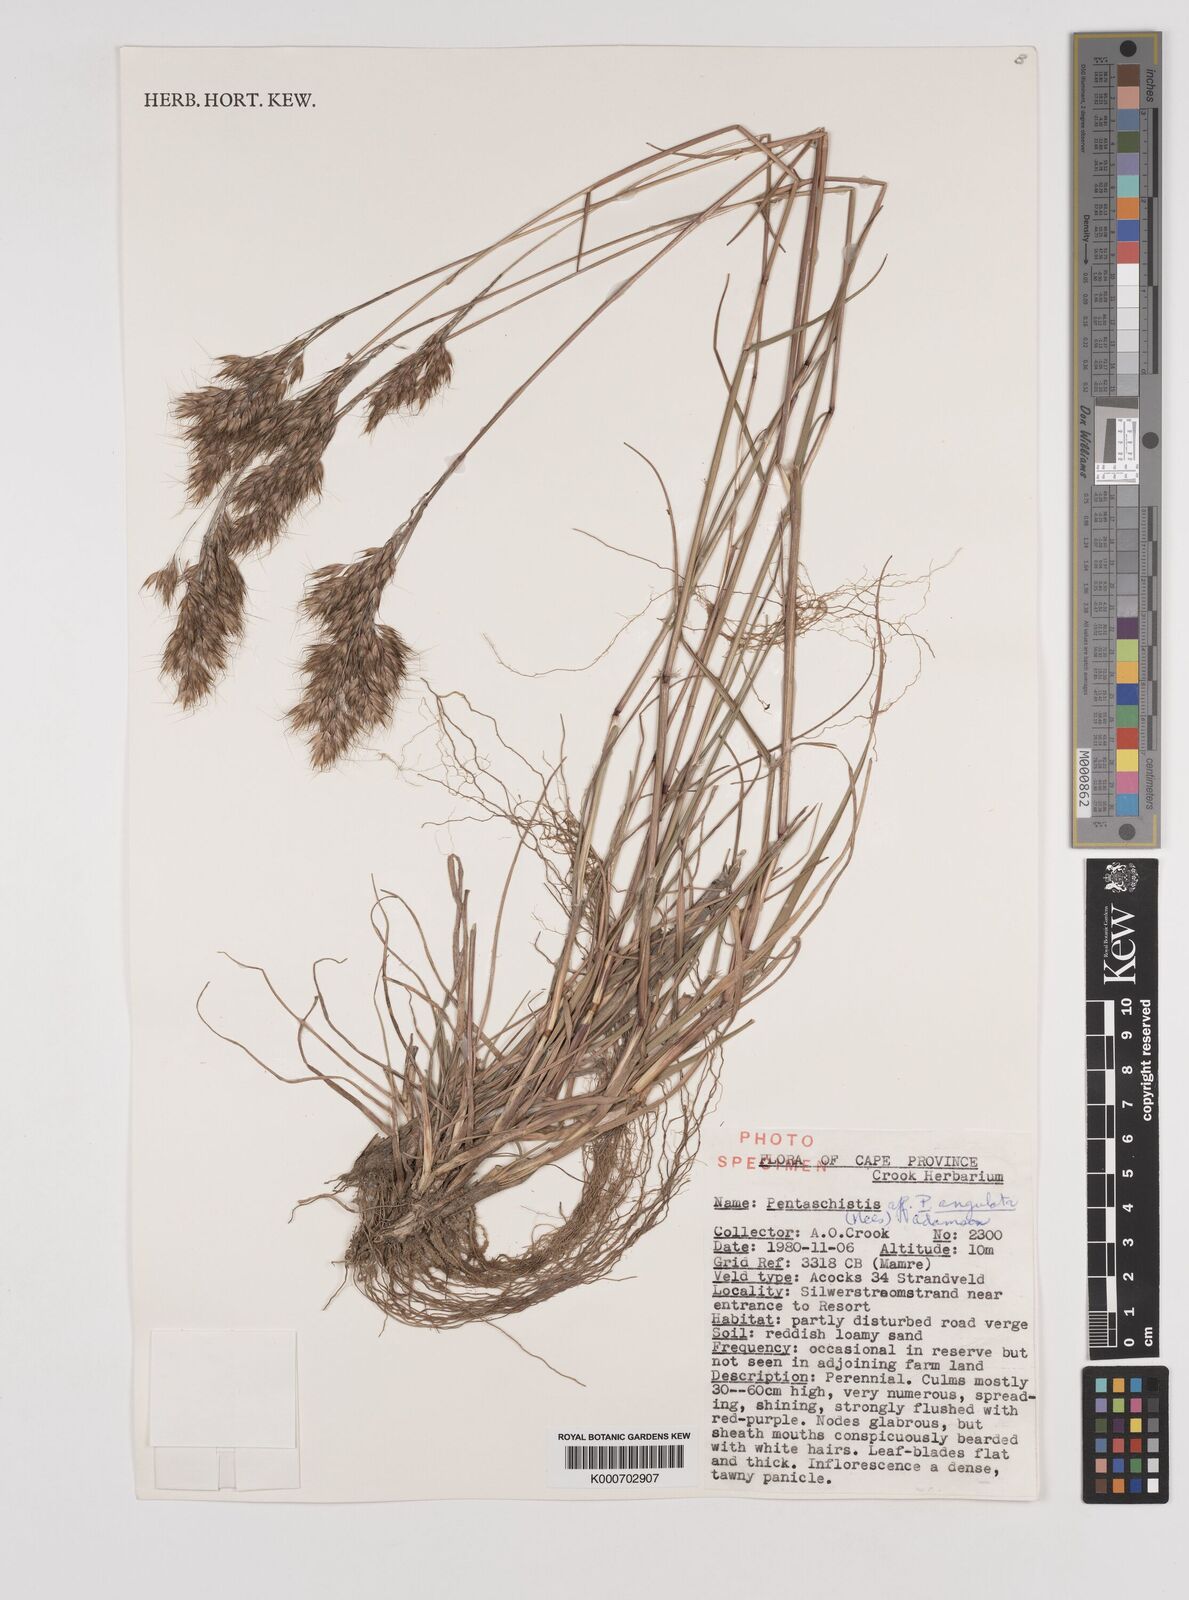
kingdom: Plantae
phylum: Tracheophyta
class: Liliopsida
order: Poales
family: Poaceae
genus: Pentameris
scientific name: Pentameris barbata
